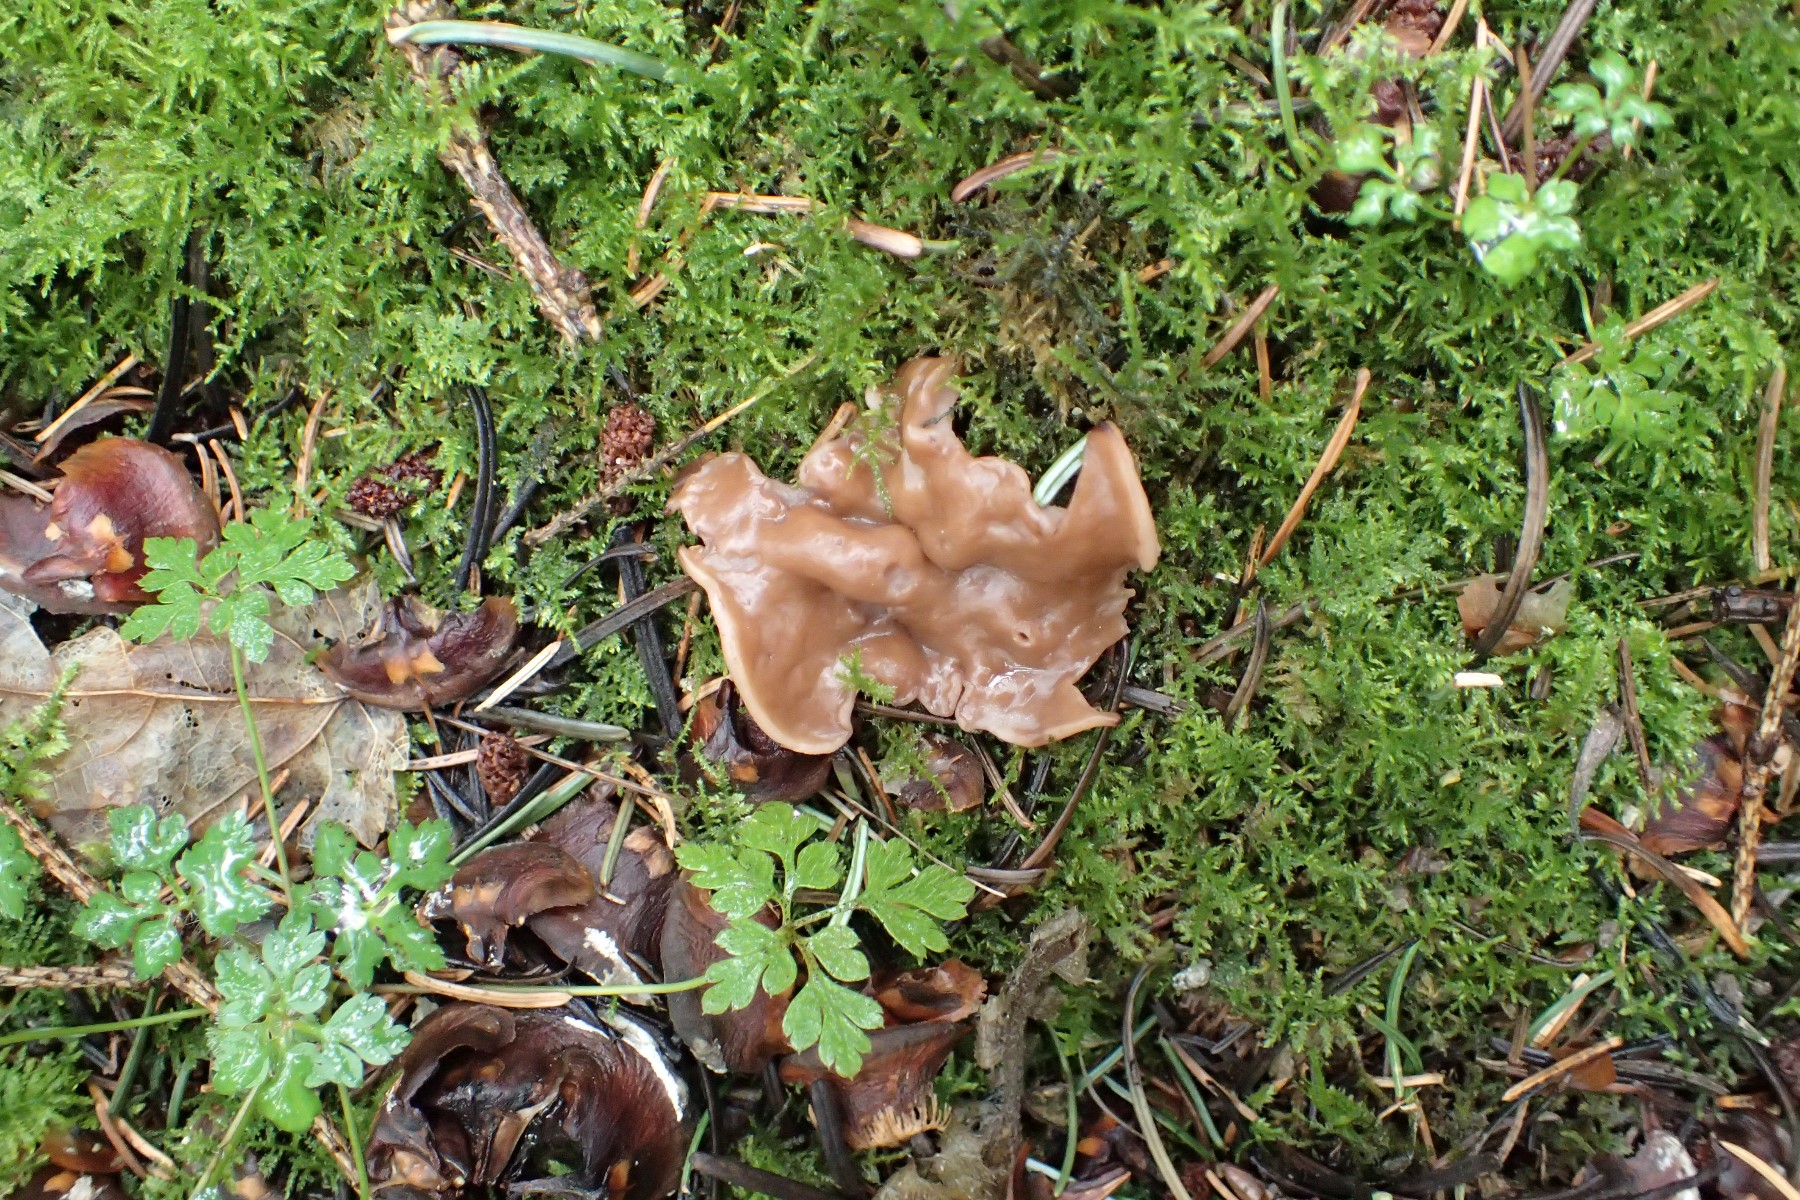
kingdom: Fungi
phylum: Ascomycota
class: Pezizomycetes
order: Pezizales
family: Discinaceae
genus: Discina
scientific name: Discina ancilis
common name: udbredt stenmorkel
